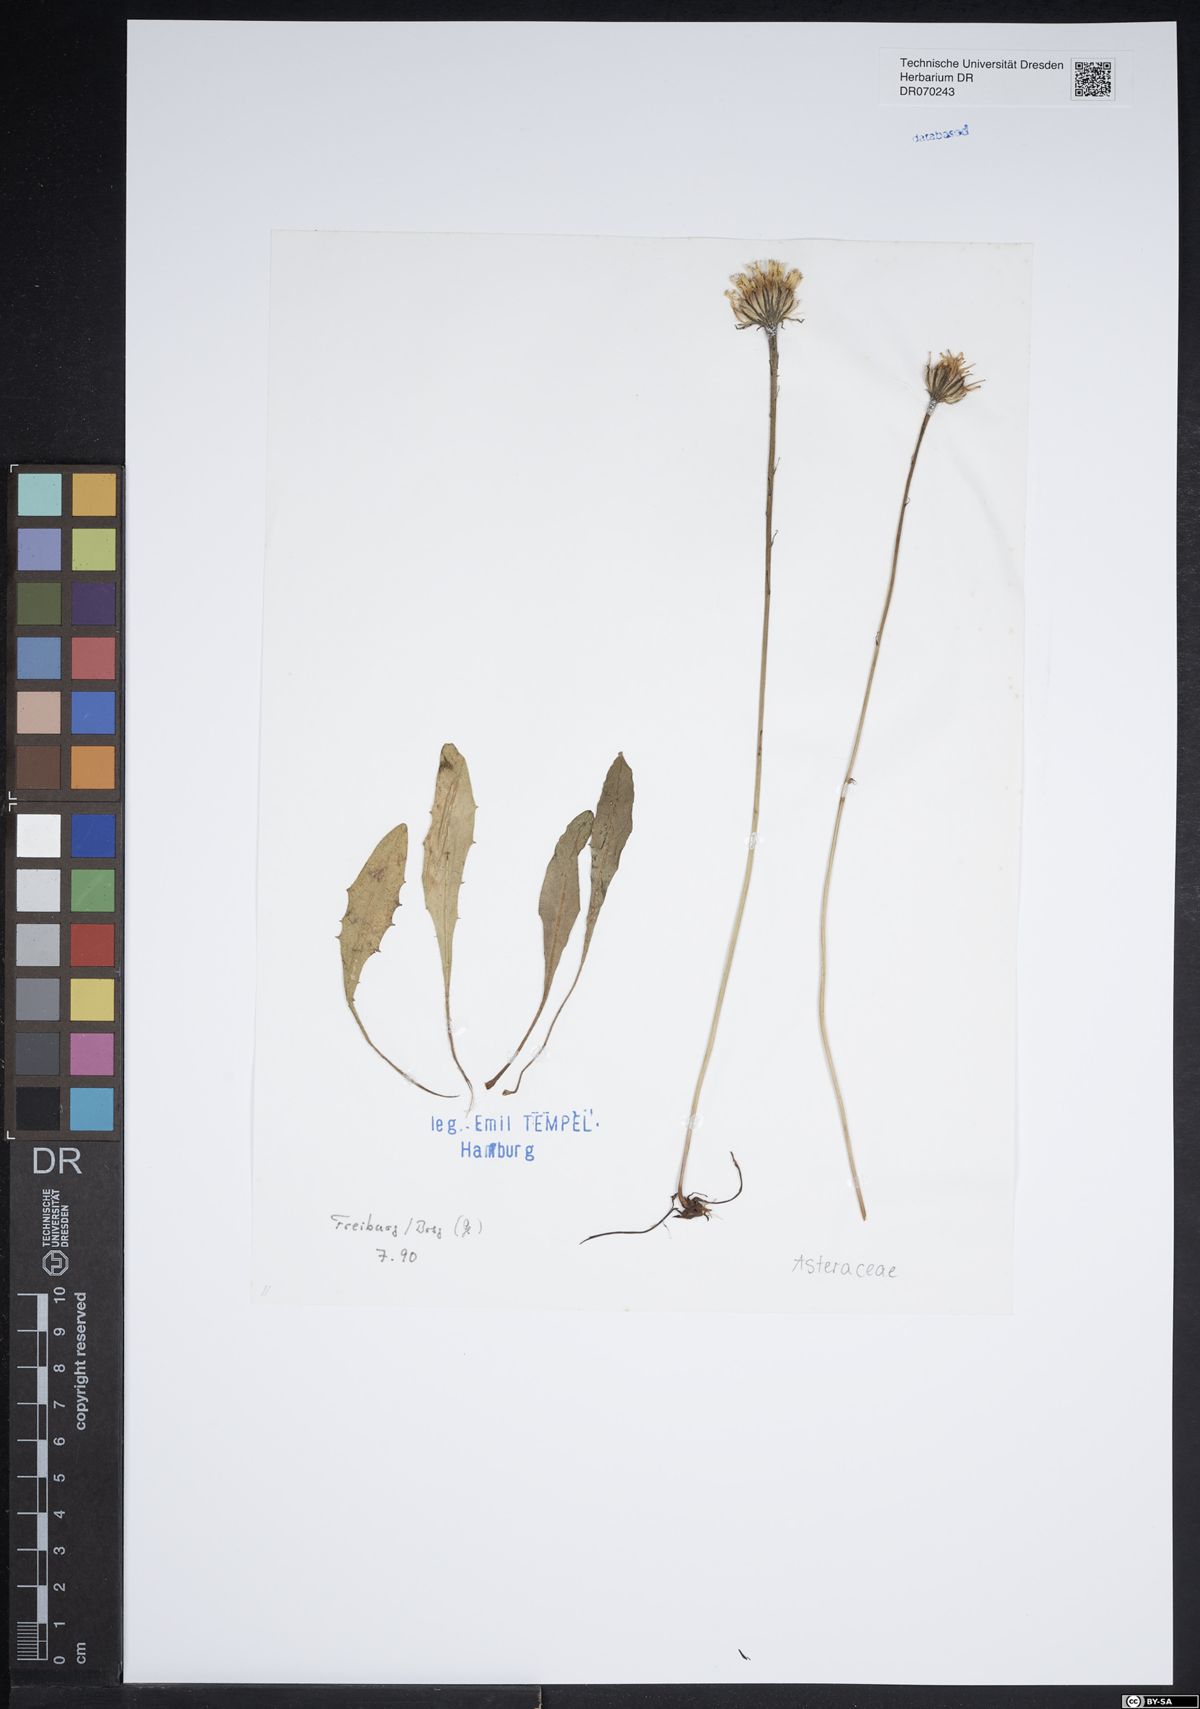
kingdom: Plantae
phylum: Tracheophyta
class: Magnoliopsida
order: Asterales
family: Asteraceae
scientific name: Asteraceae
